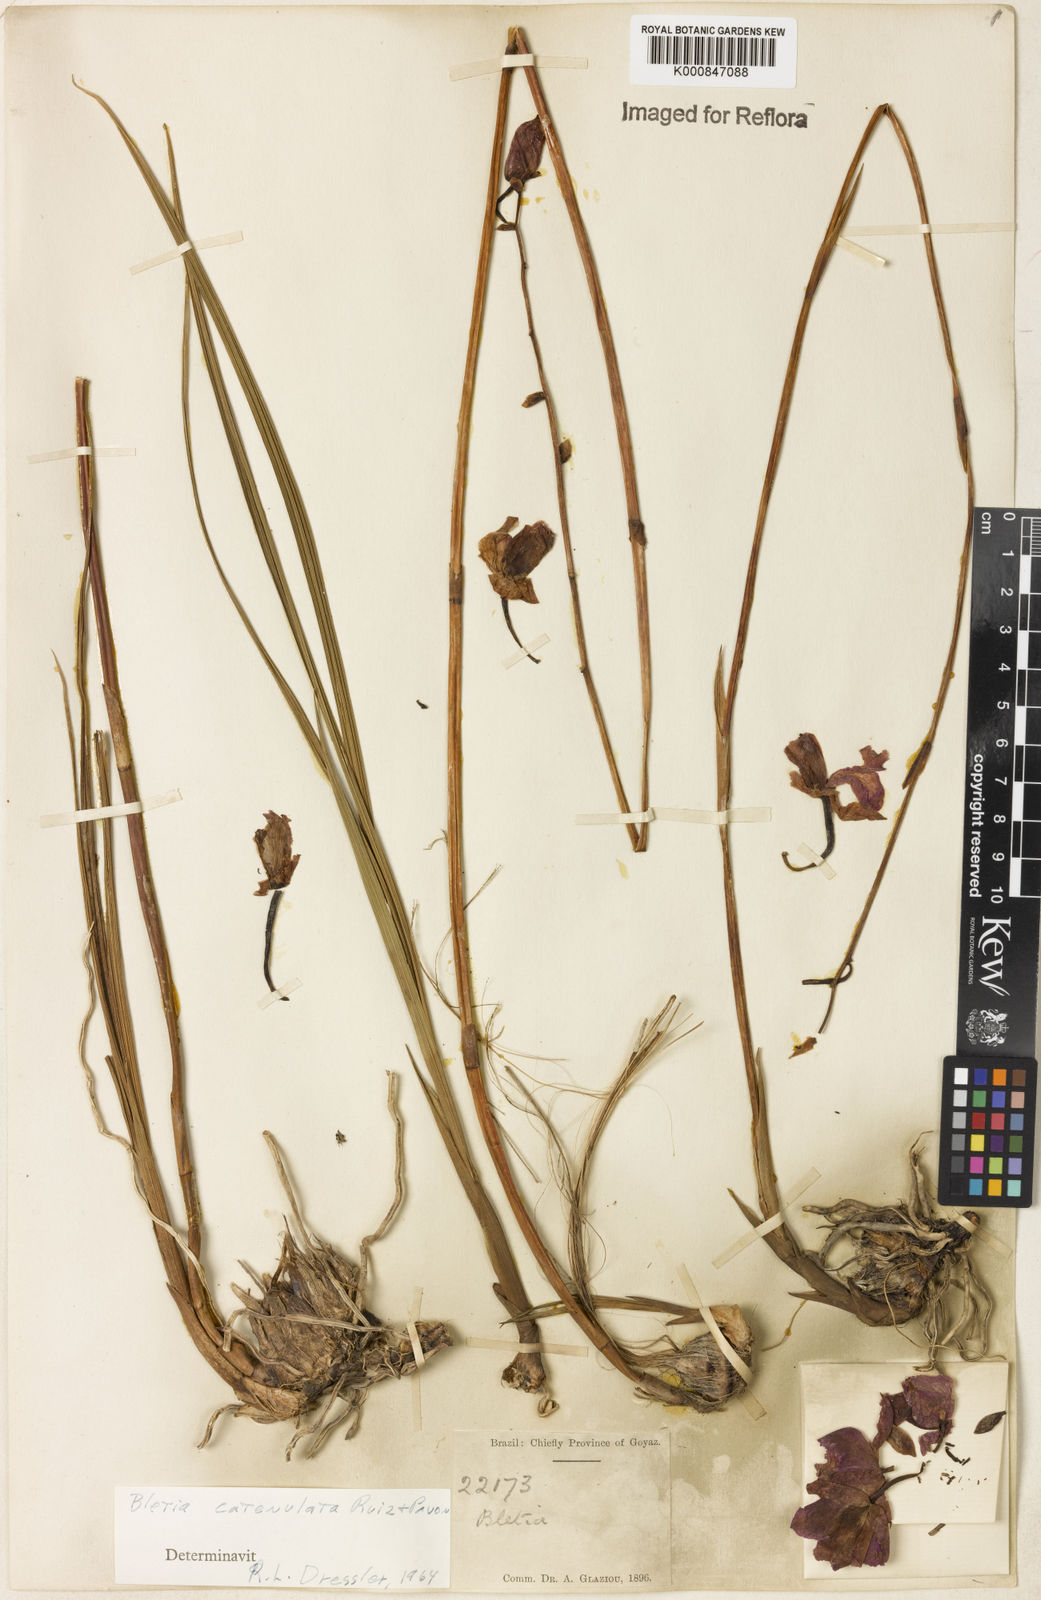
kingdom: Plantae
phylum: Tracheophyta
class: Liliopsida
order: Asparagales
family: Orchidaceae
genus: Bletia
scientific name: Bletia
